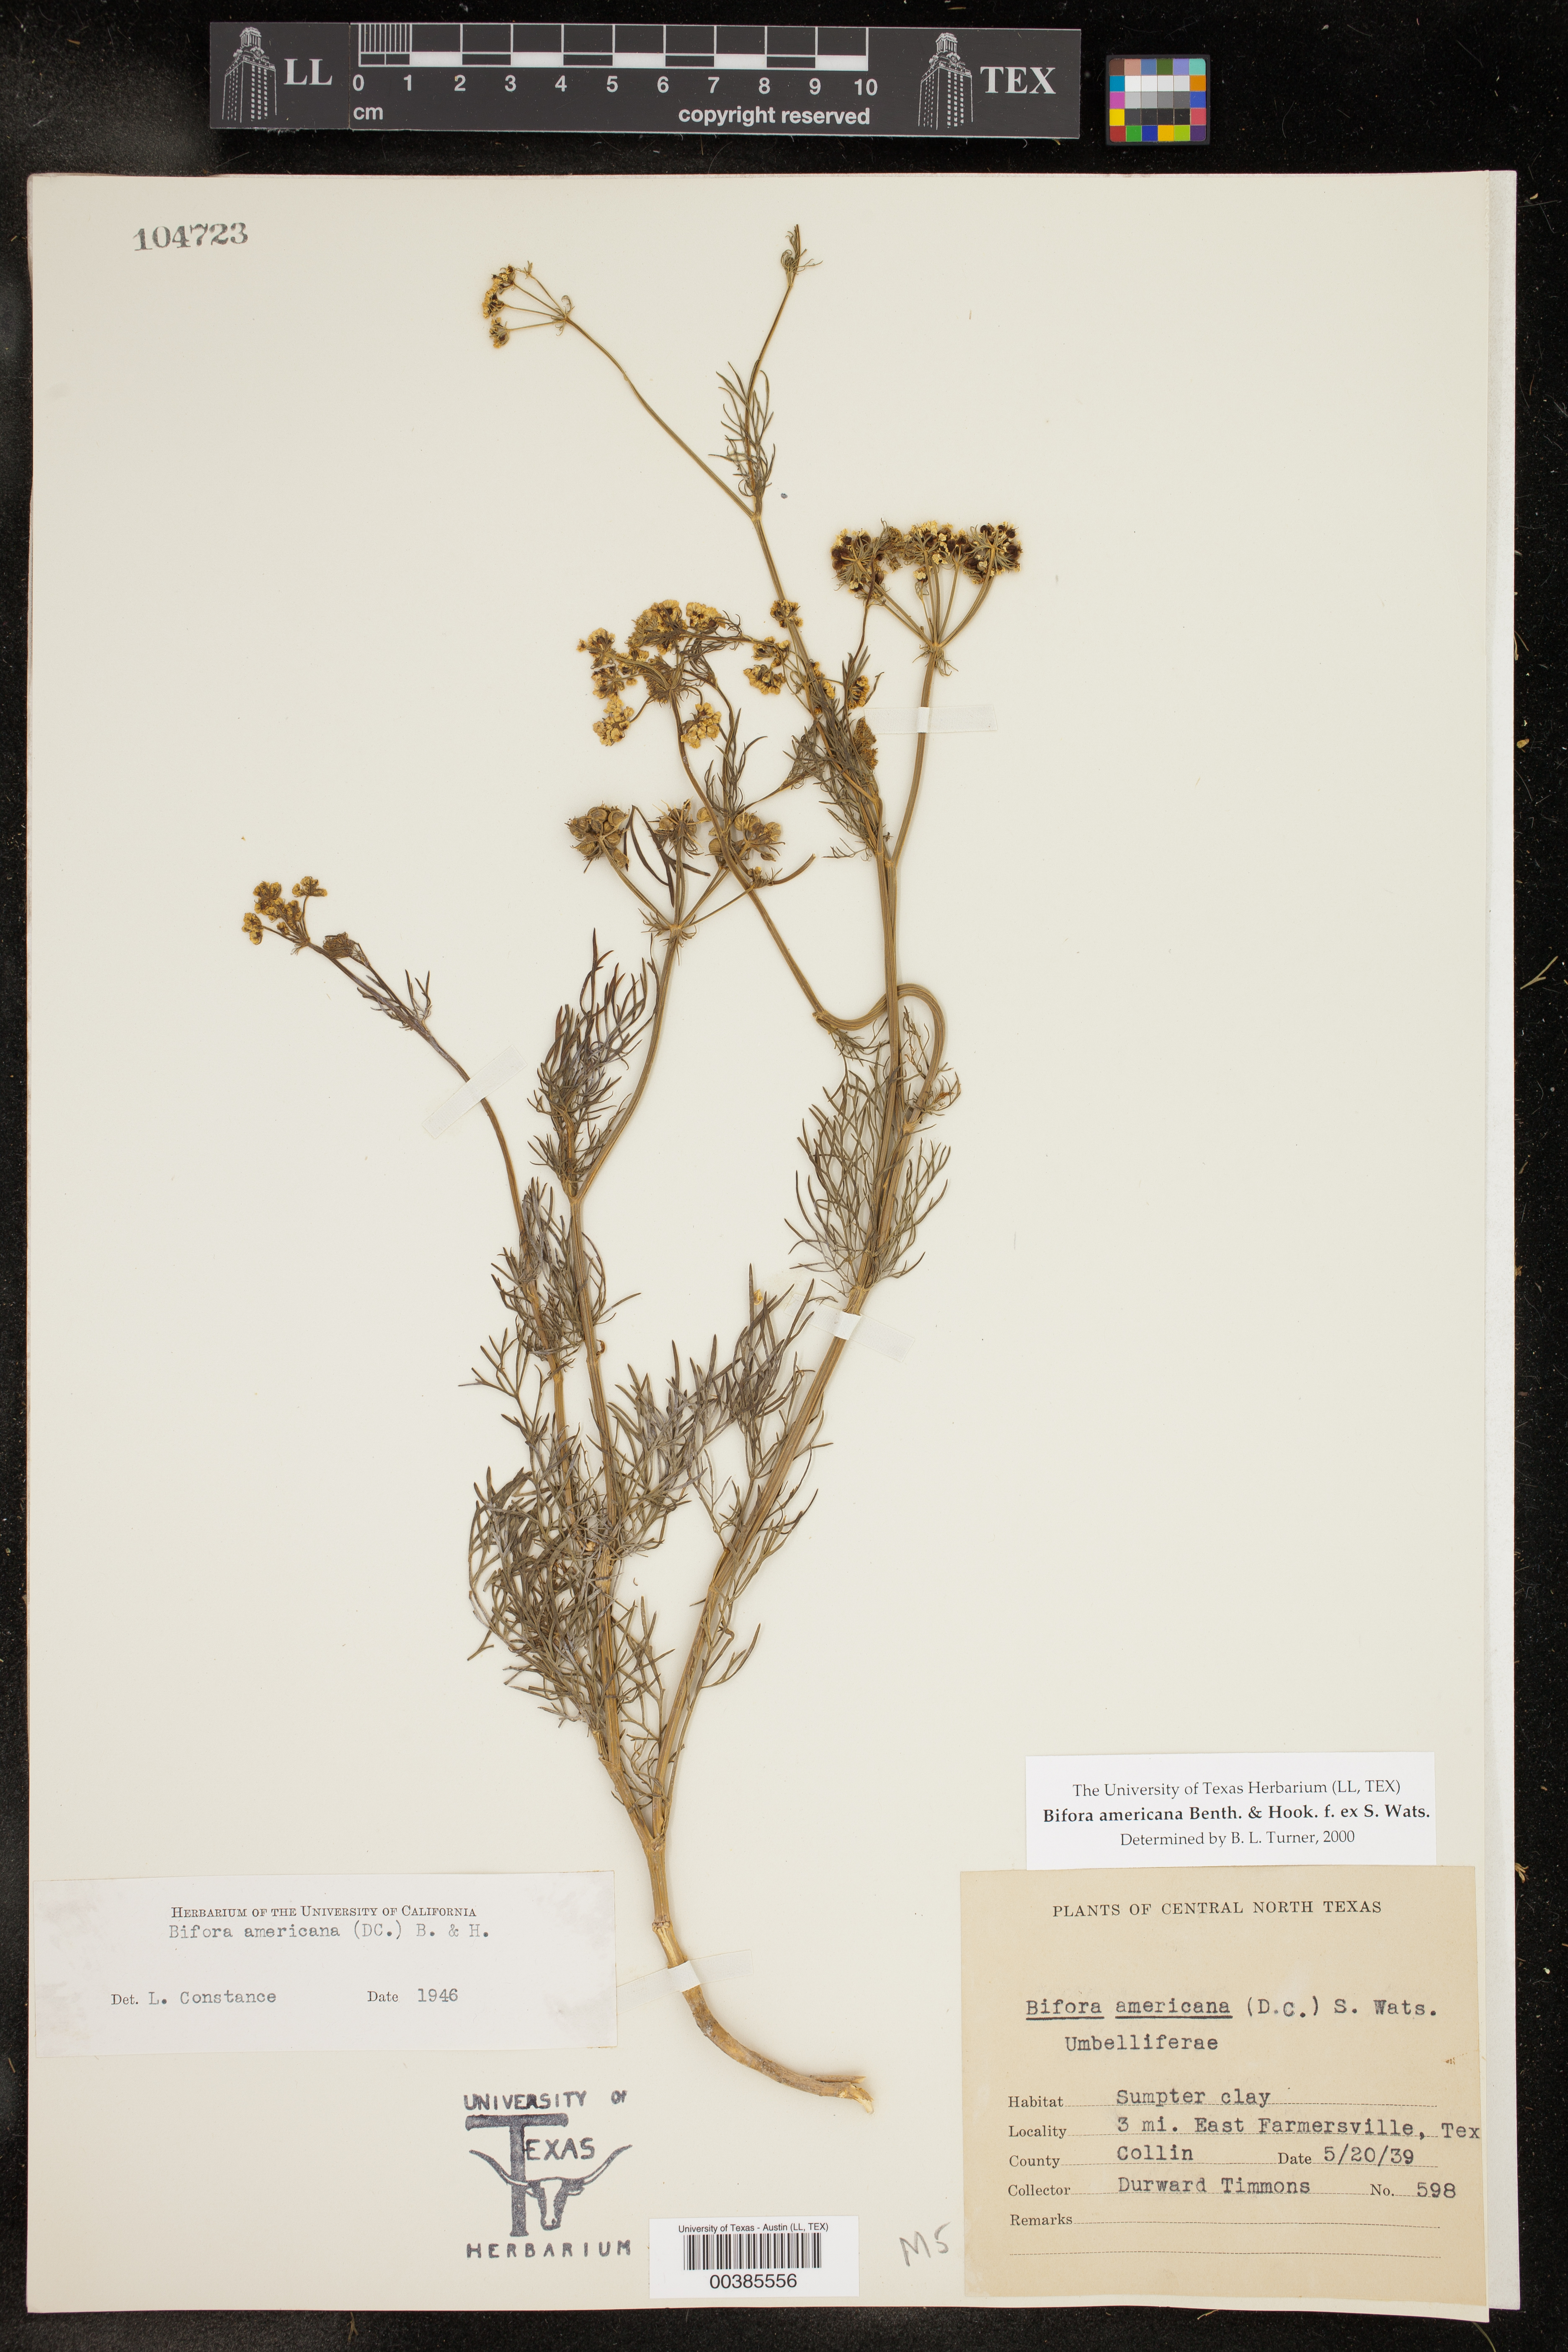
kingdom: Plantae
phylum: Tracheophyta
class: Magnoliopsida
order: Apiales
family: Apiaceae
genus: Atrema
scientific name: Atrema americanum
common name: Prairie-bishop
